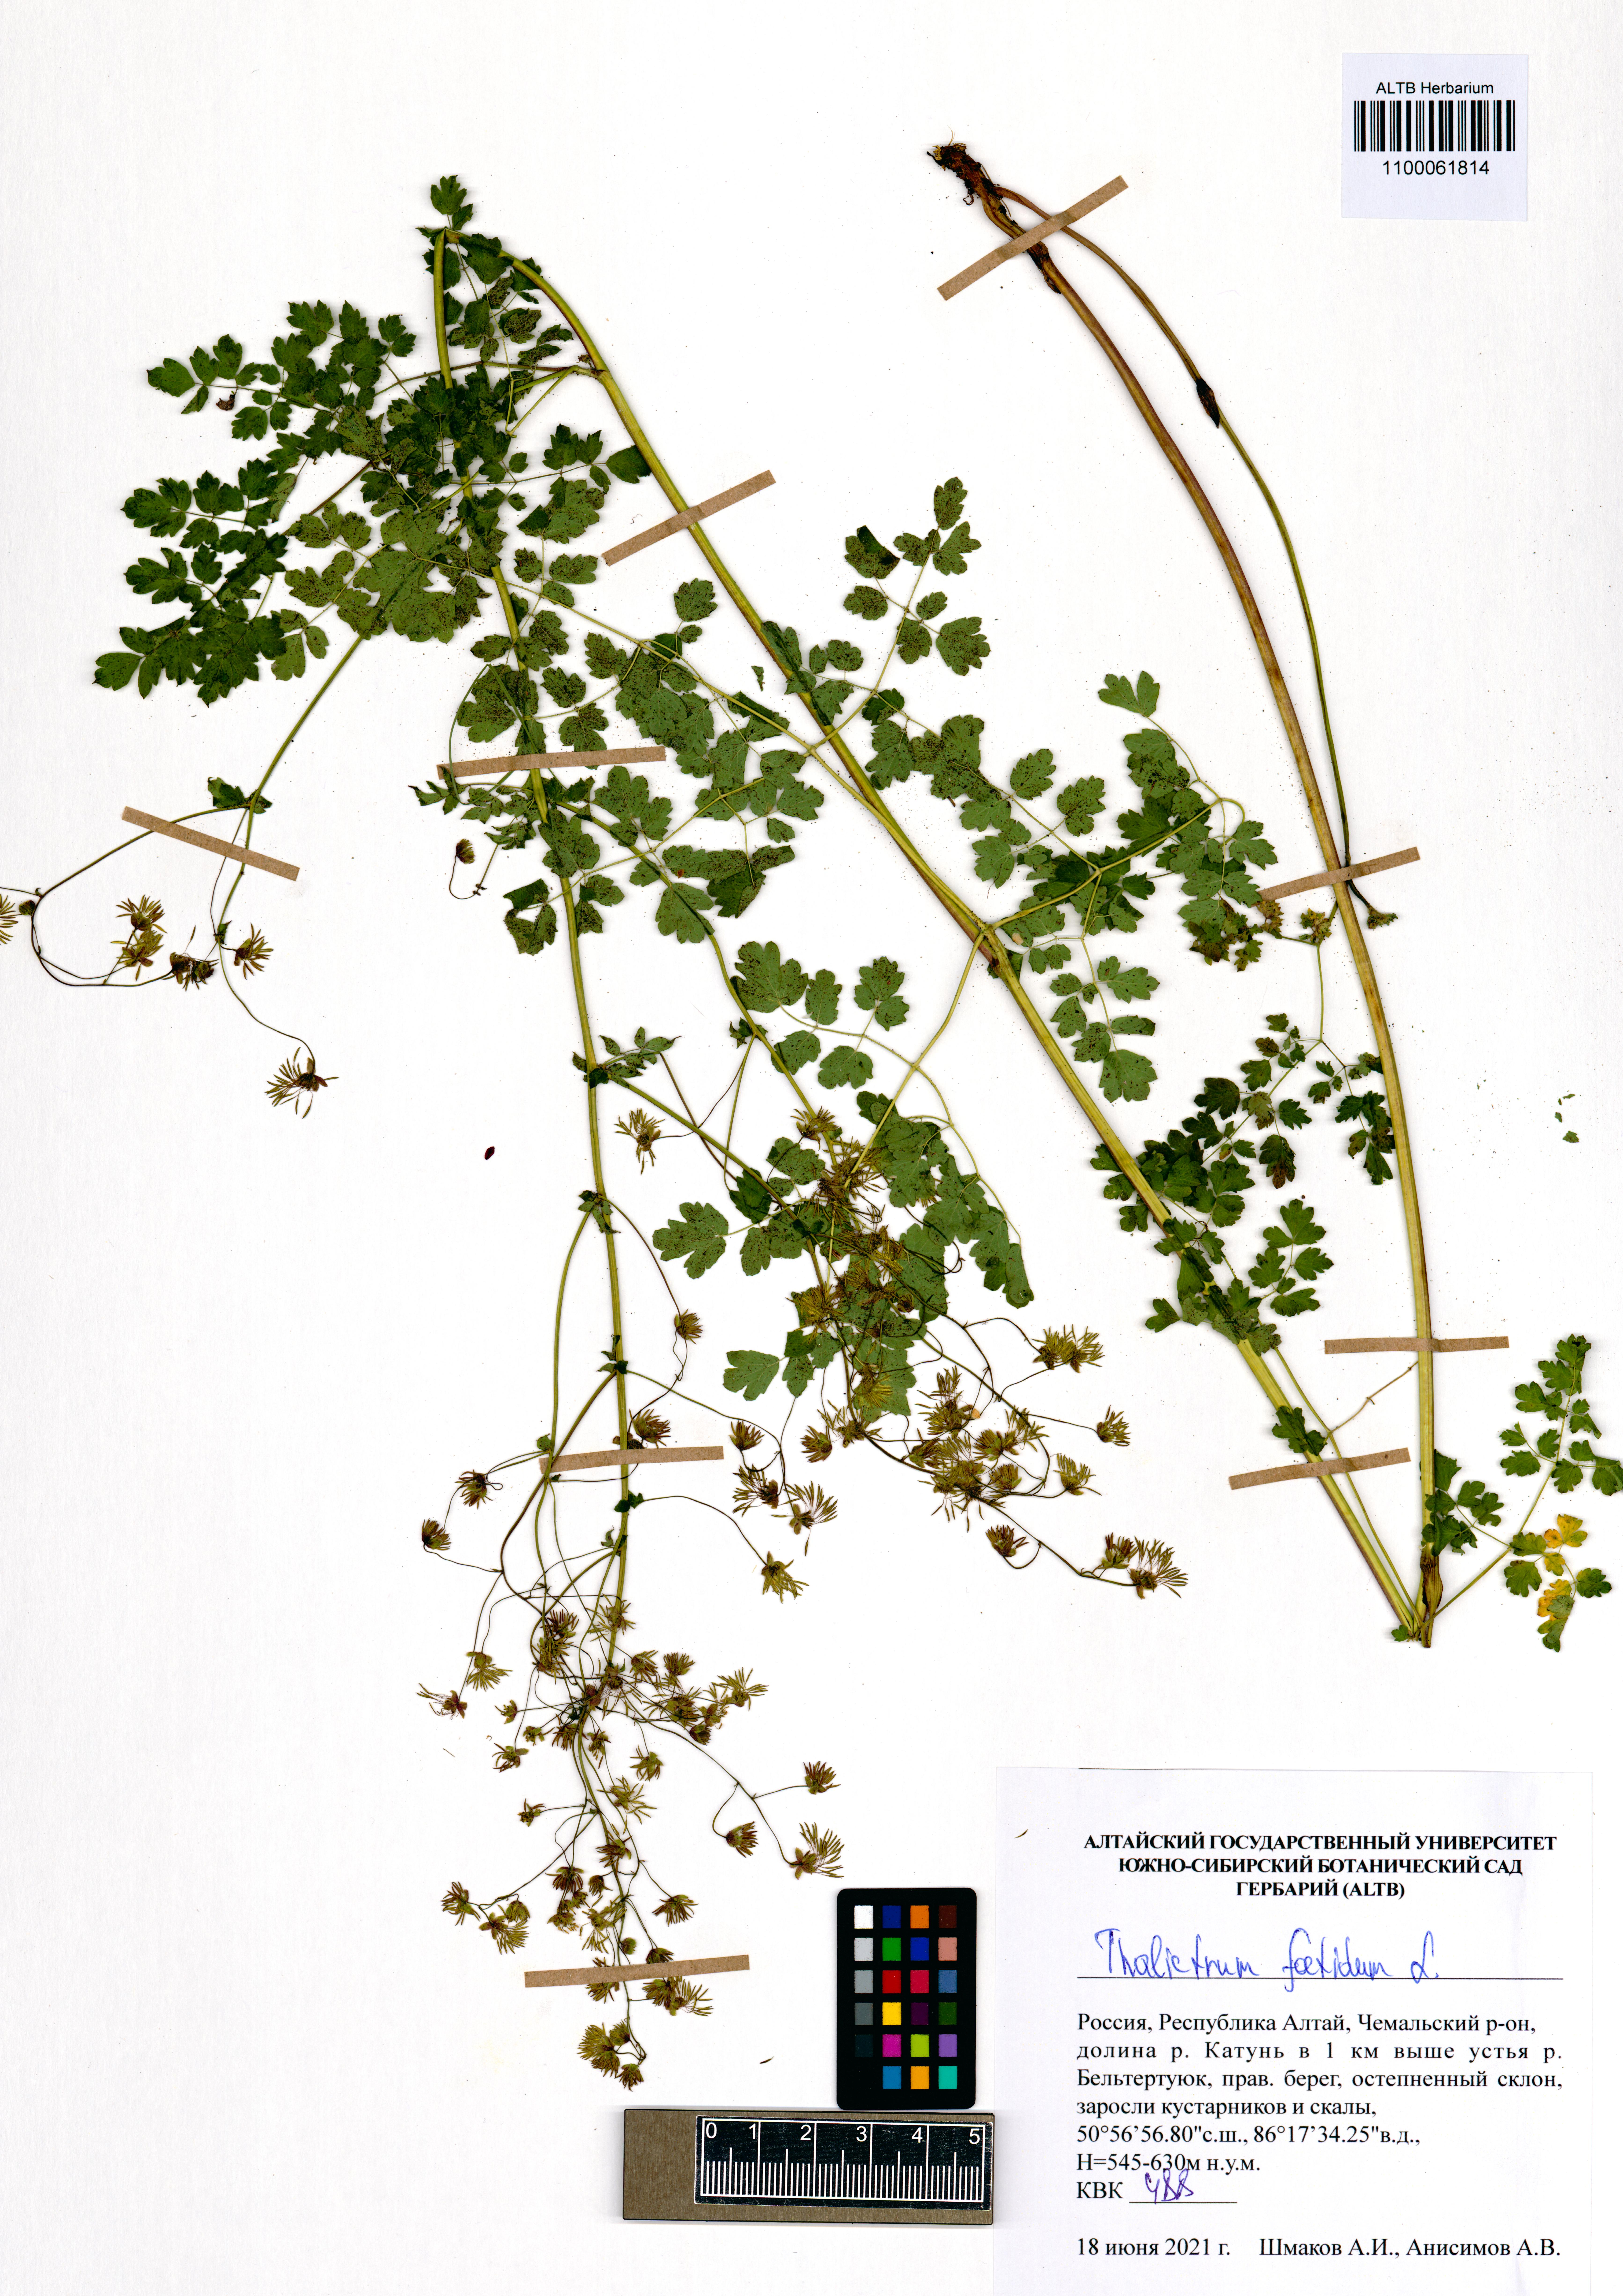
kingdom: Plantae
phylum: Tracheophyta
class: Magnoliopsida
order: Ranunculales
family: Ranunculaceae
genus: Thalictrum
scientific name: Thalictrum foetidum
